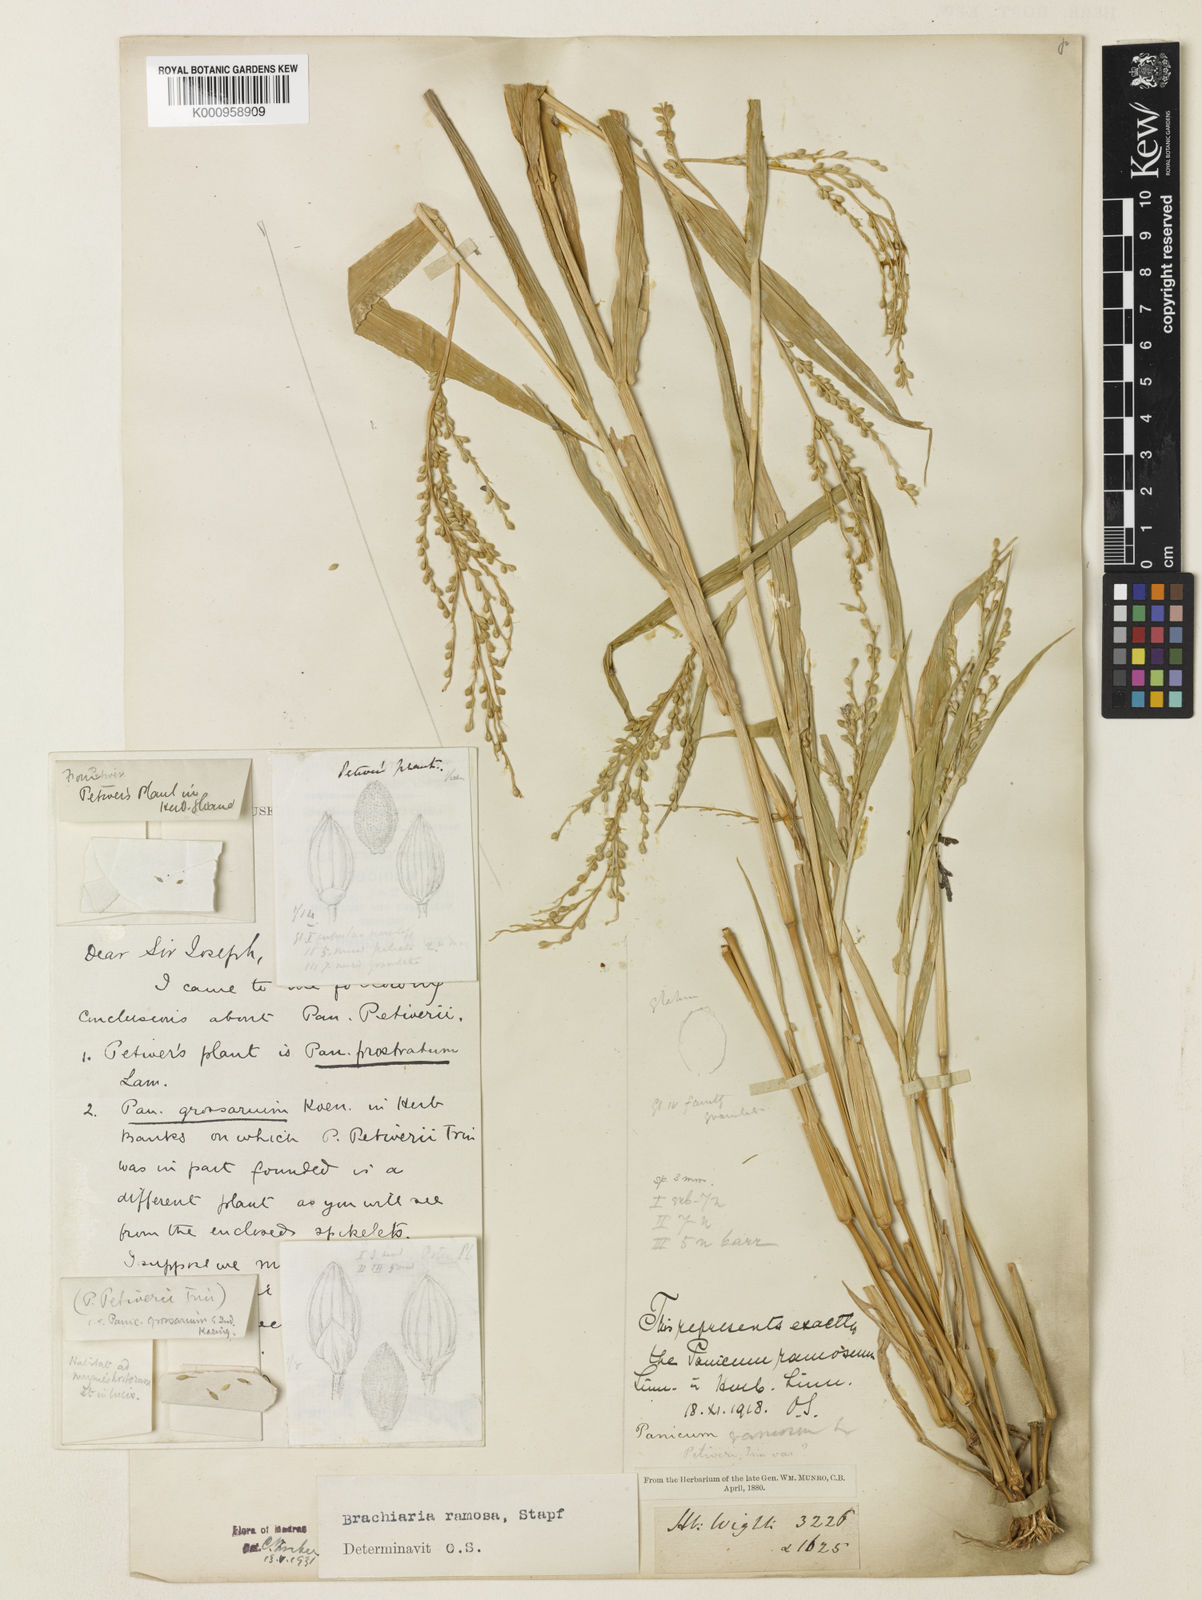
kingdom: Plantae
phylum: Tracheophyta
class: Liliopsida
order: Poales
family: Poaceae
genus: Urochloa
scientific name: Urochloa ramosa
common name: Browntop millet
